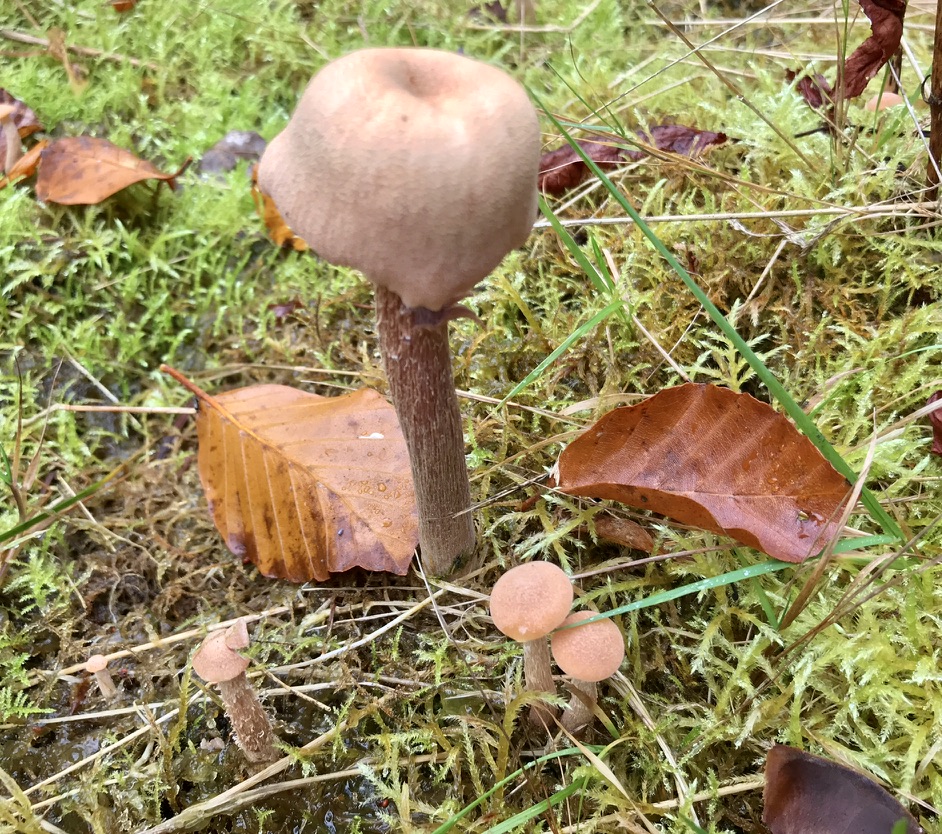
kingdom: Fungi
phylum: Basidiomycota
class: Agaricomycetes
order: Agaricales
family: Hydnangiaceae
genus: Laccaria
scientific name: Laccaria proxima
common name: stor ametysthat
